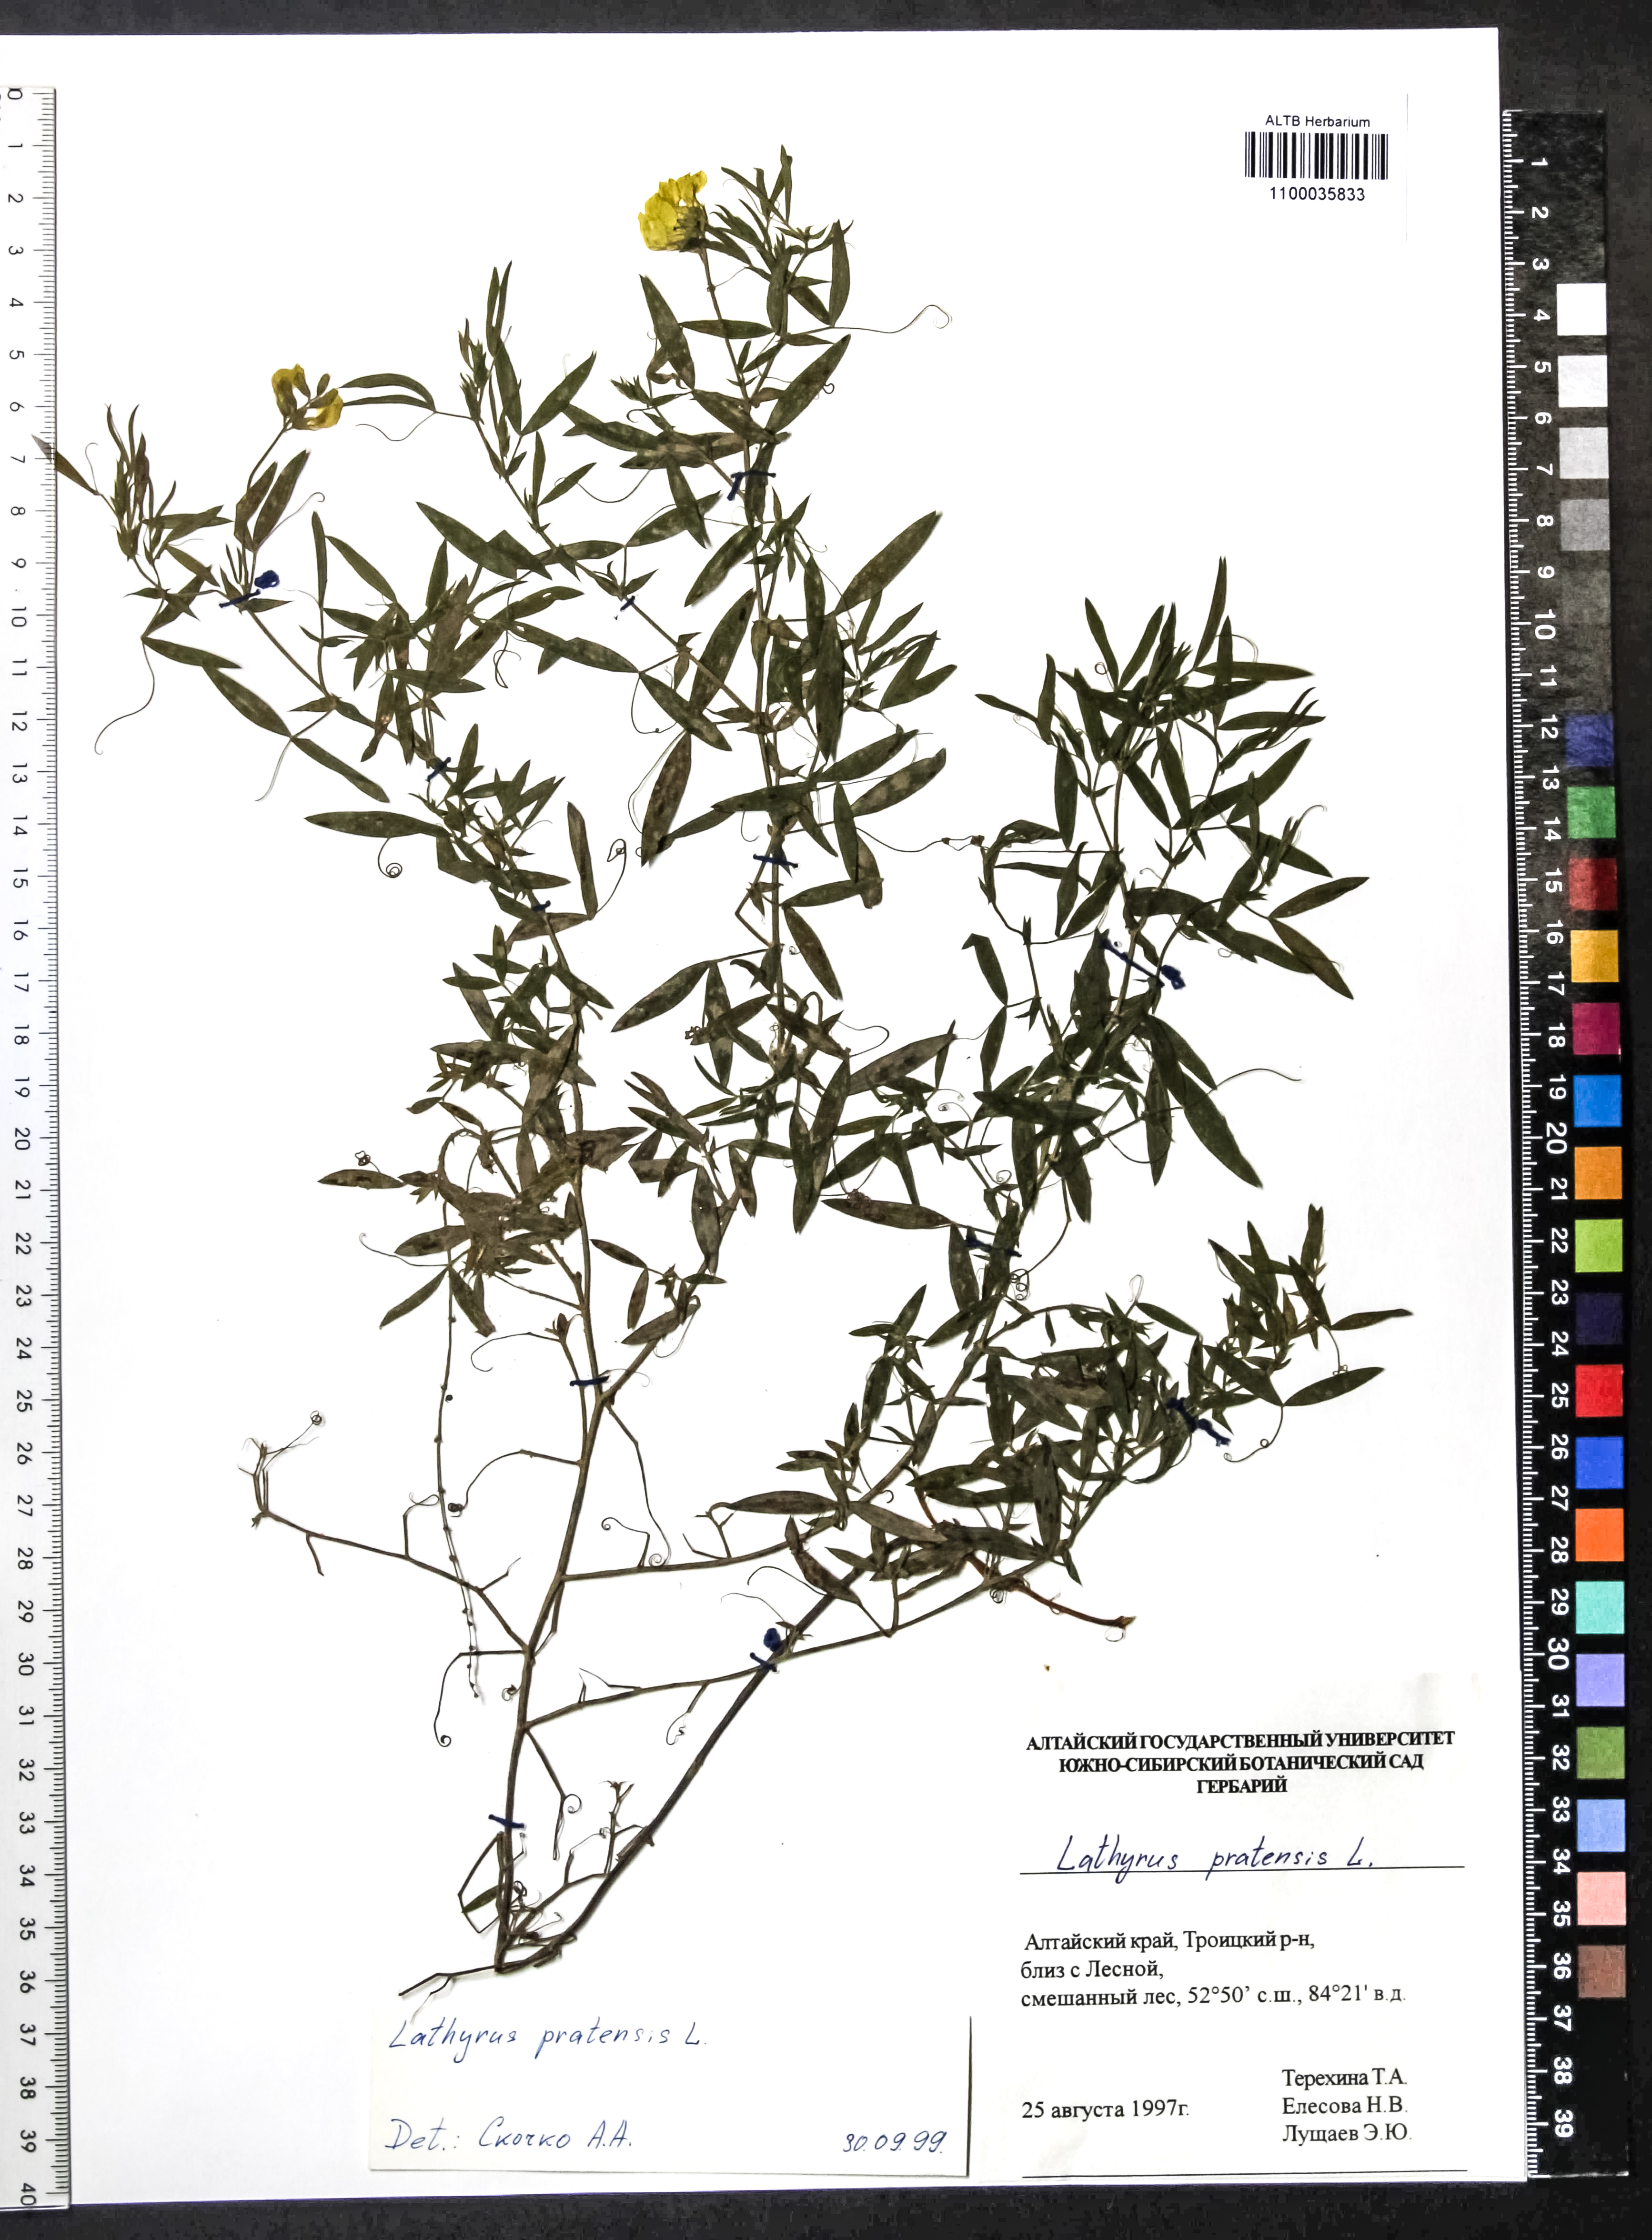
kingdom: Plantae
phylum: Tracheophyta
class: Magnoliopsida
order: Fabales
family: Fabaceae
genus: Lathyrus
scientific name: Lathyrus pratensis
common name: Meadow vetchling
